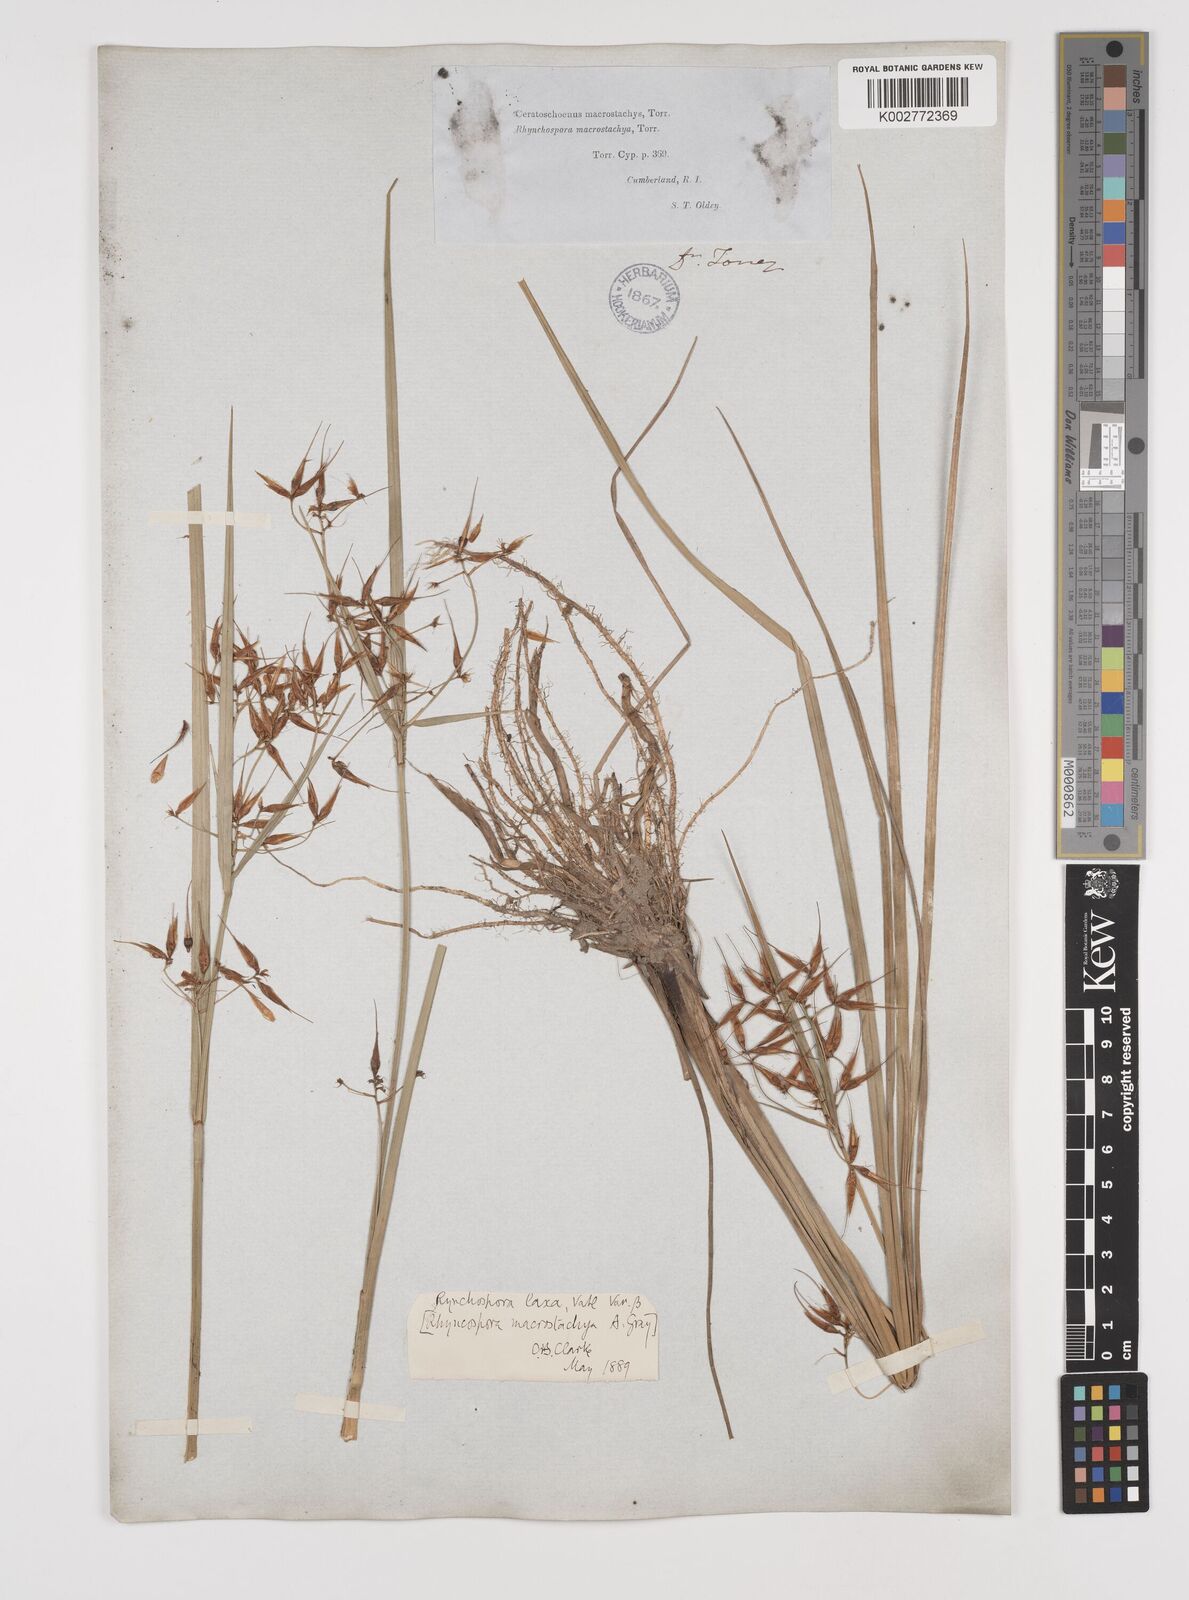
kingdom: Plantae
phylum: Tracheophyta
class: Liliopsida
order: Poales
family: Cyperaceae
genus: Rhynchospora
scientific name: Rhynchospora corniculata
